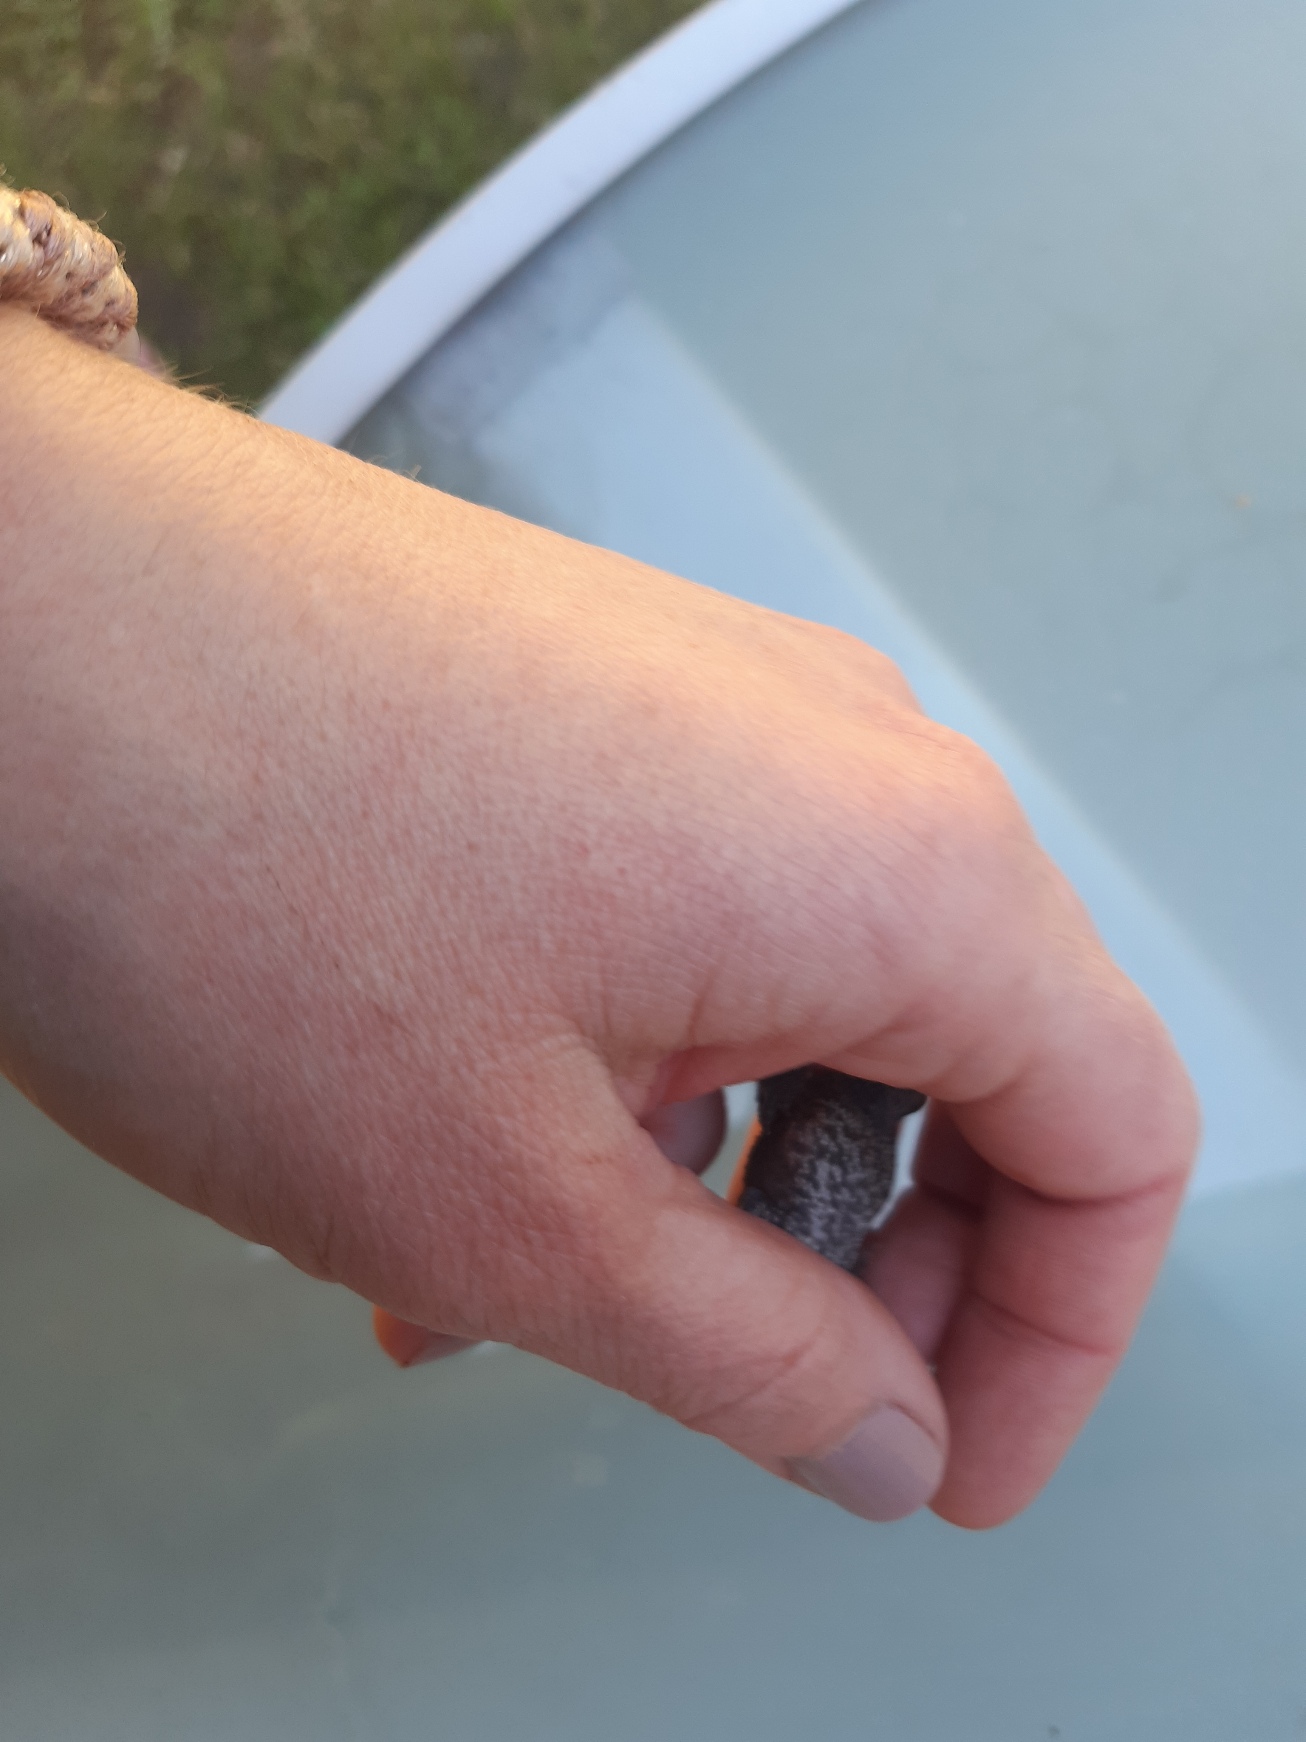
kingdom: Animalia
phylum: Chordata
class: Amphibia
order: Anura
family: Bufonidae
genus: Bufo
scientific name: Bufo bufo
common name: Skrubtudse
